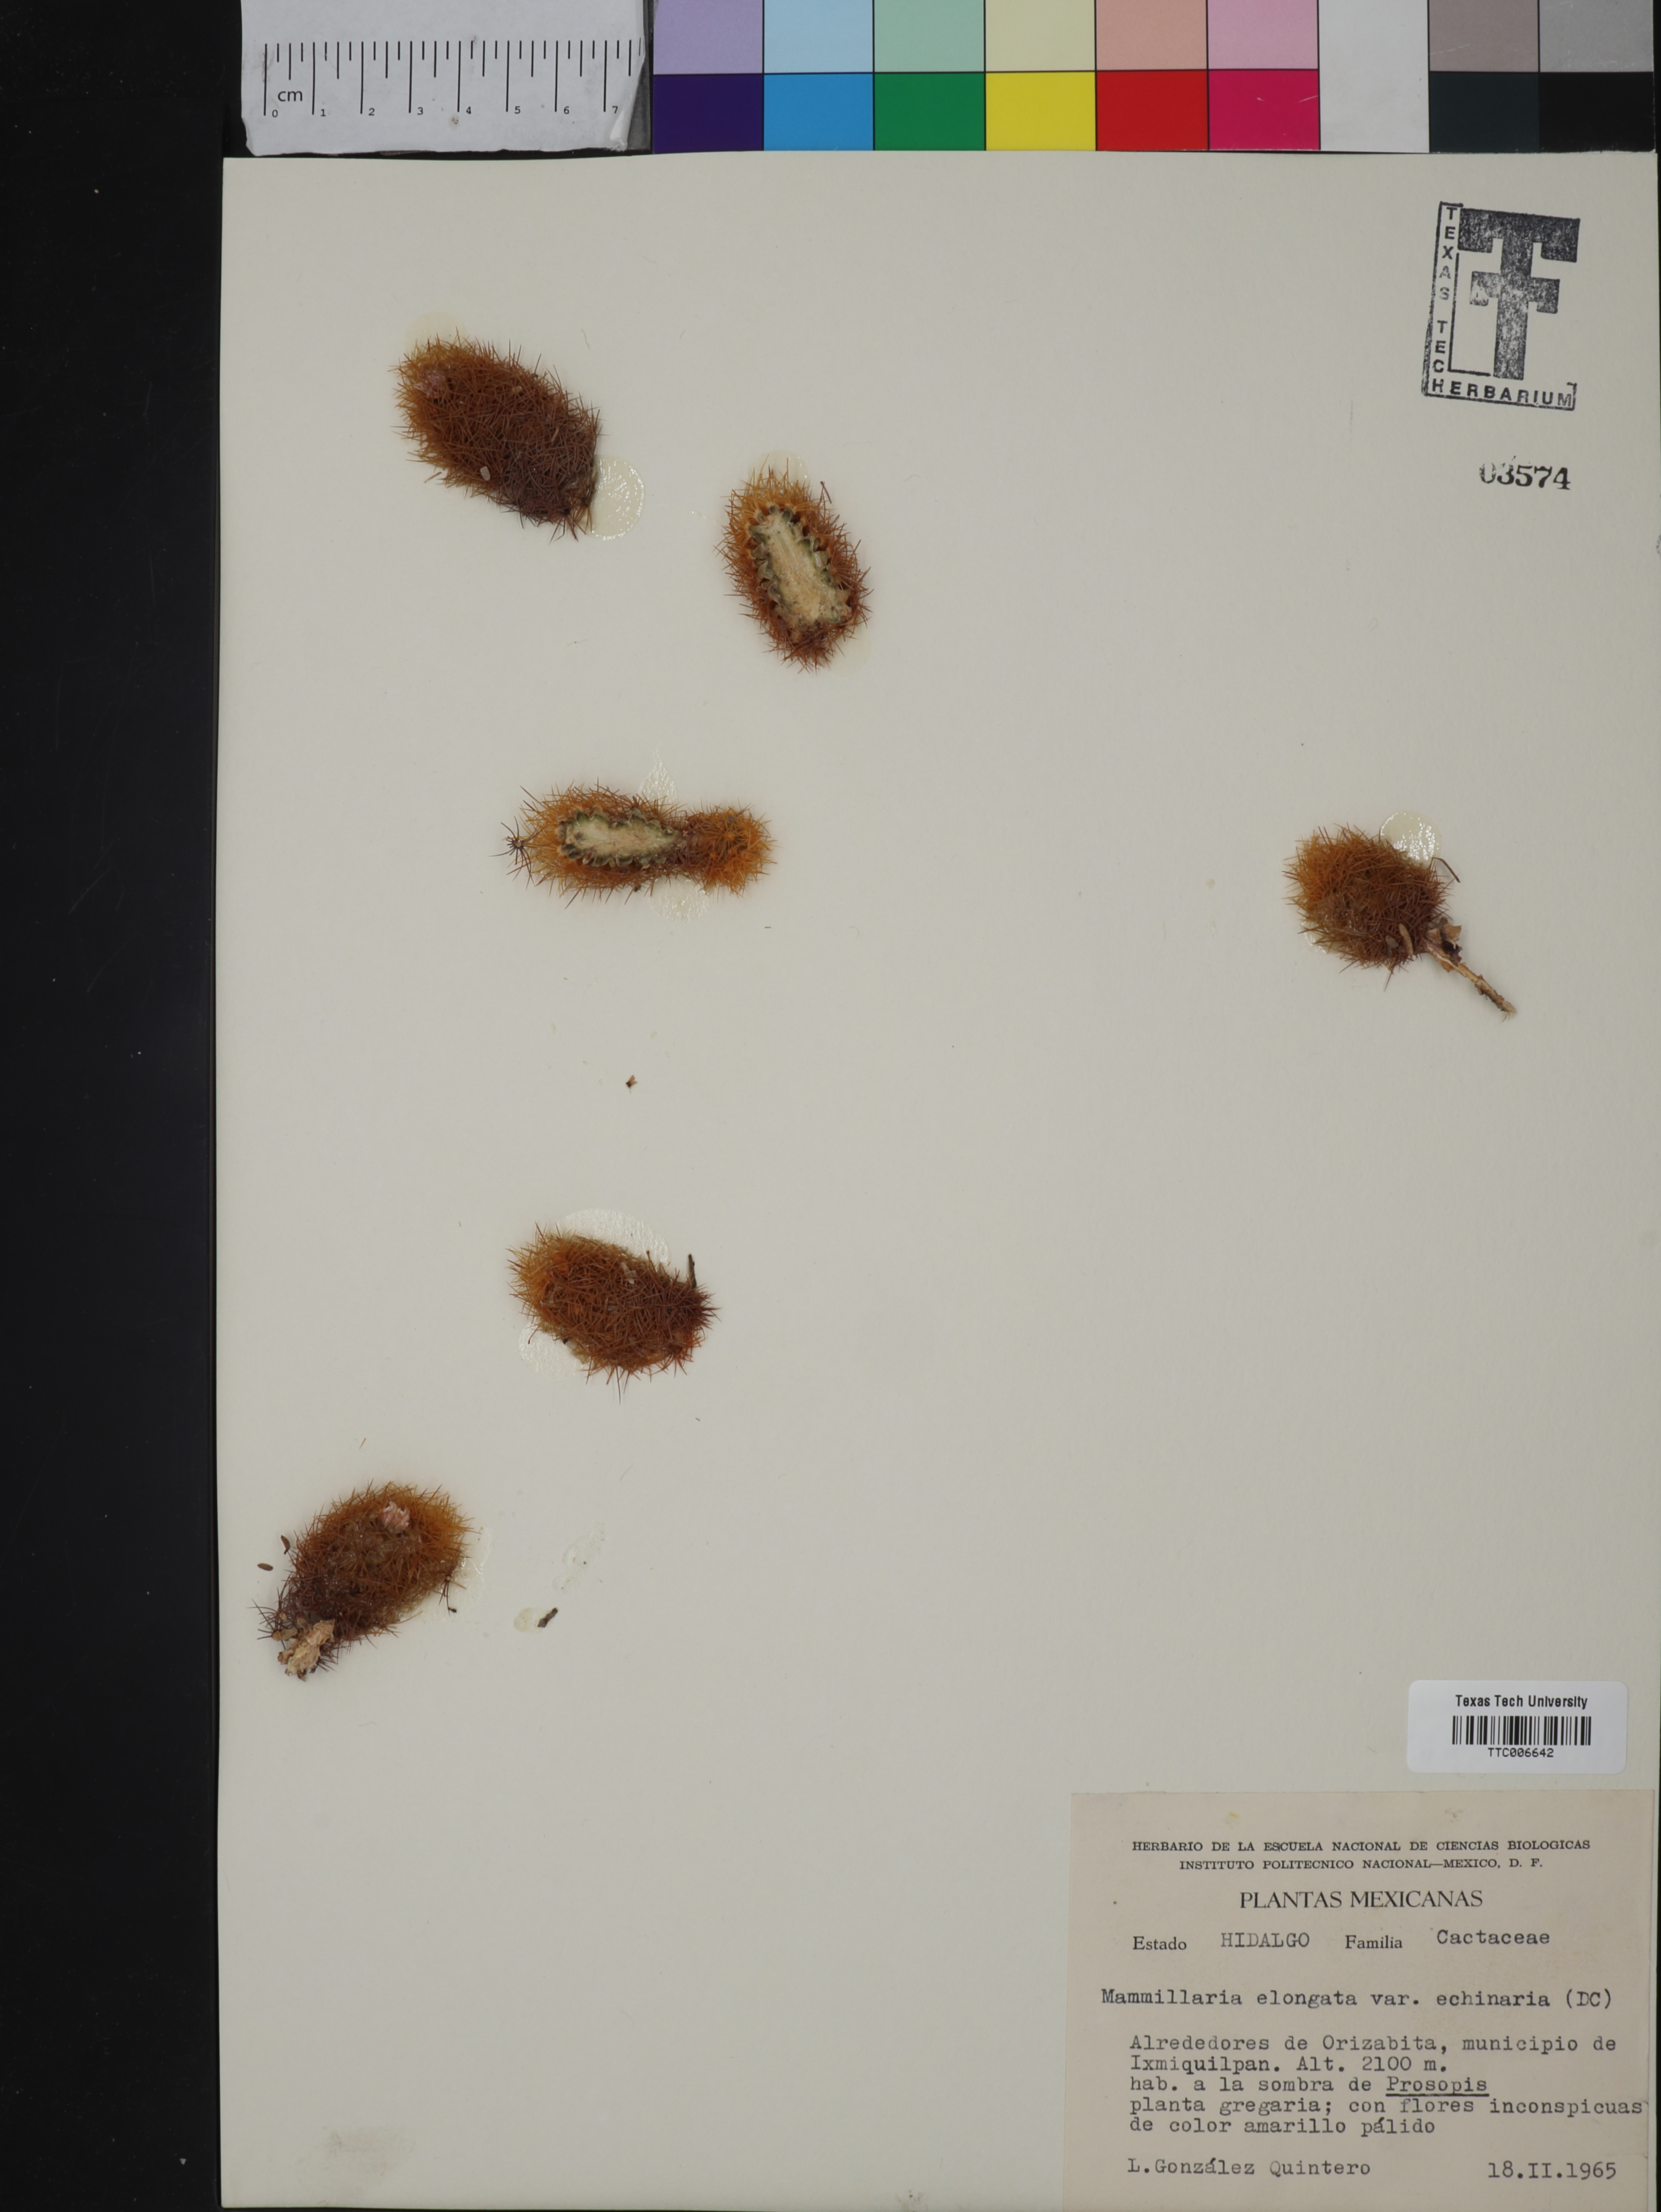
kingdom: Plantae
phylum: Tracheophyta
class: Magnoliopsida
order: Caryophyllales
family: Cactaceae
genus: Mammillaria
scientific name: Mammillaria elongata
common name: Golden star cactus
